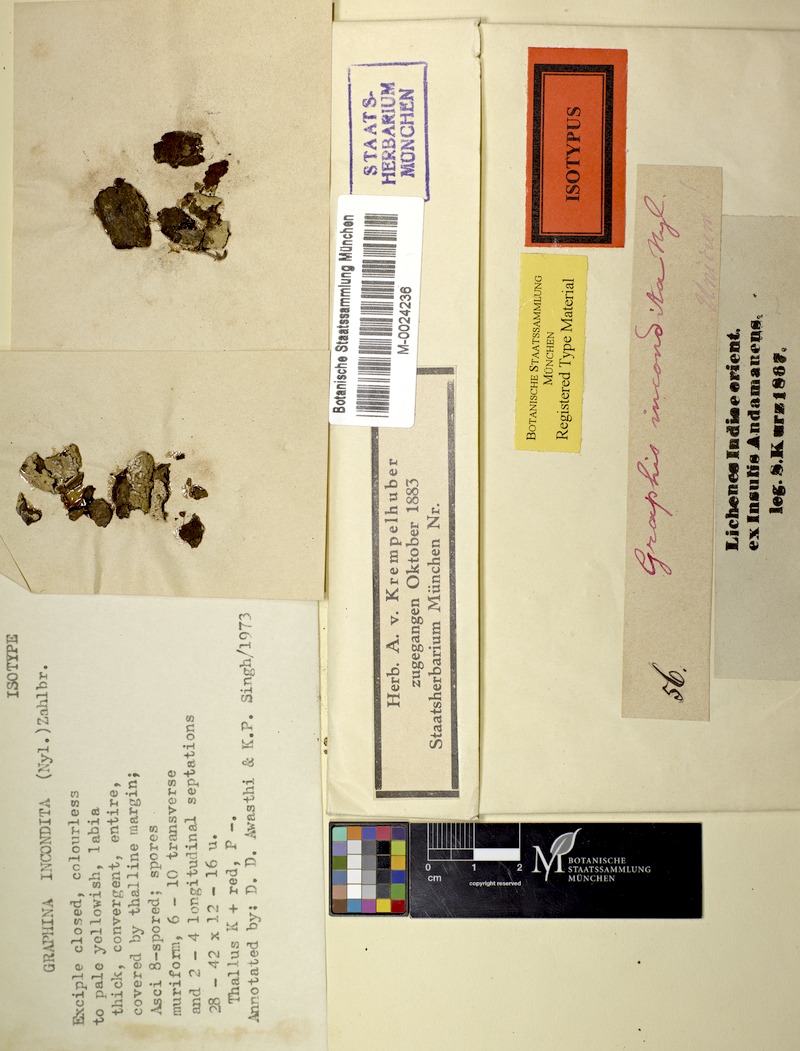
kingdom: Fungi
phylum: Ascomycota
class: Lecanoromycetes
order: Ostropales
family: Graphidaceae
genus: Acanthothecis
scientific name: Acanthothecis
